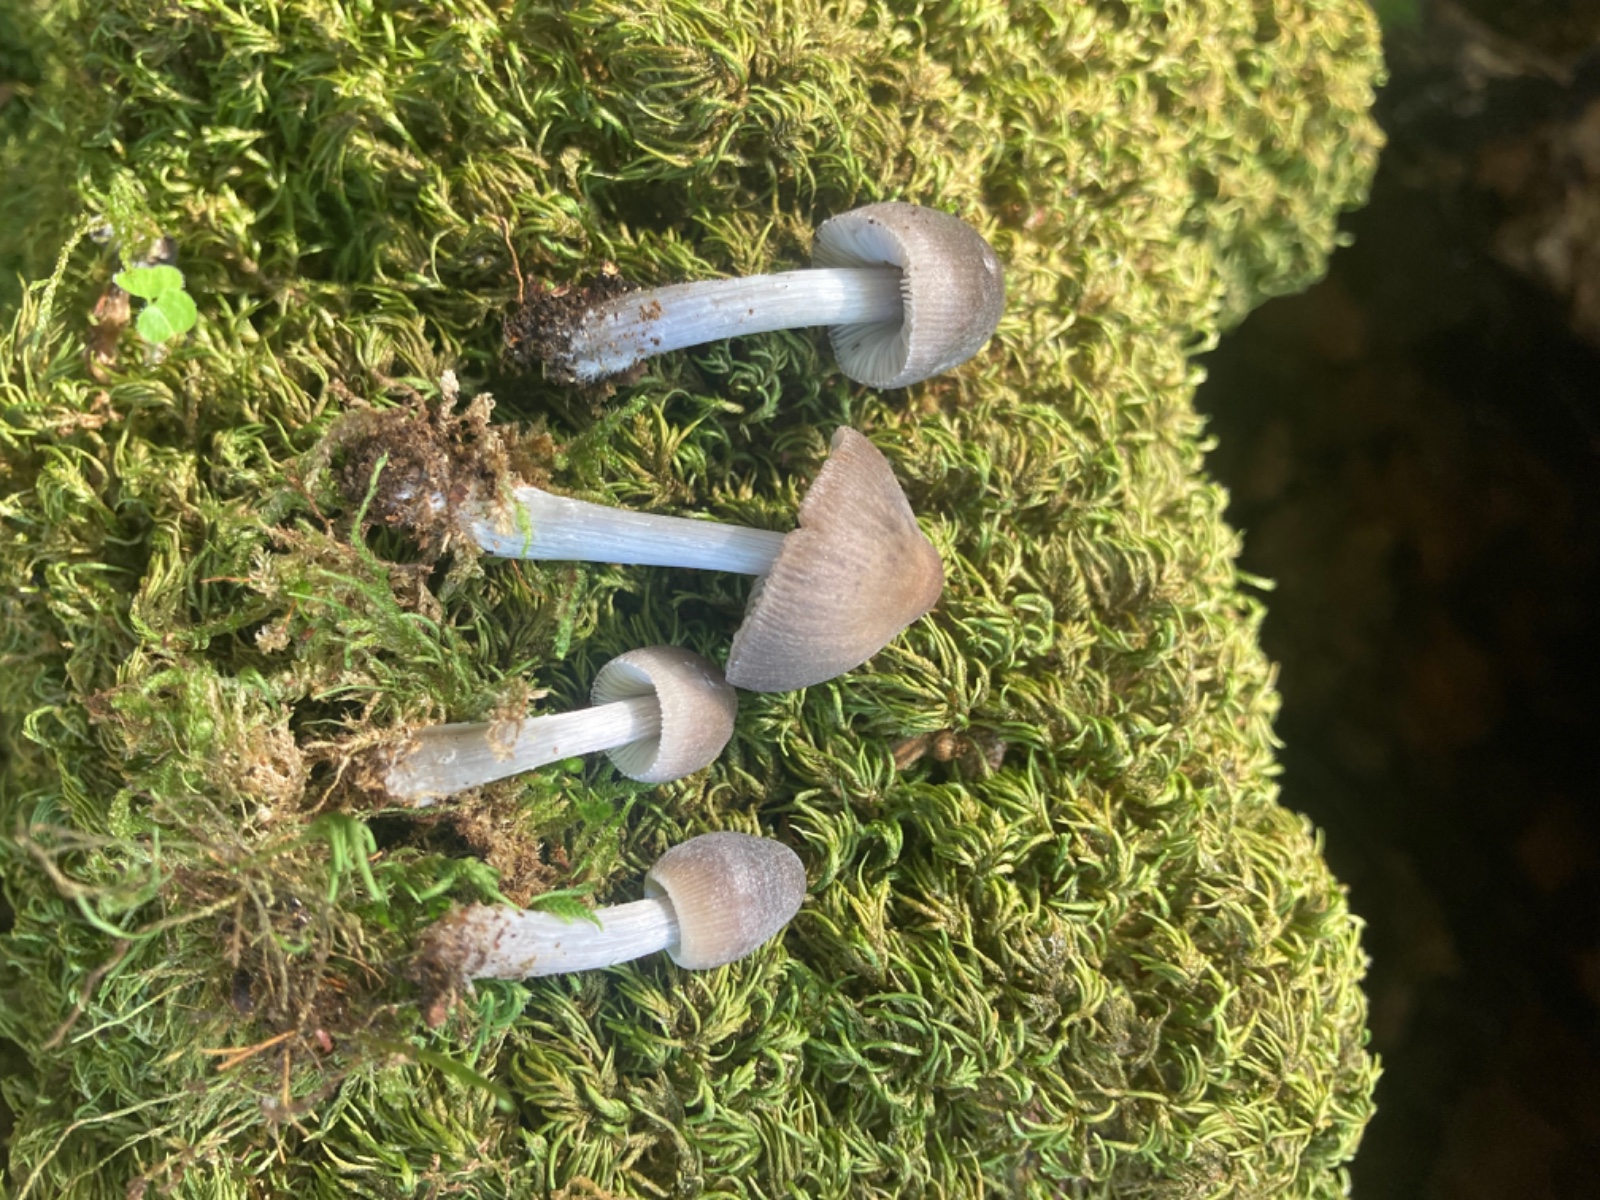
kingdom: Fungi
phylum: Basidiomycota
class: Agaricomycetes
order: Agaricales
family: Mycenaceae
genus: Hydropus
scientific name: Hydropus
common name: fnugfod
